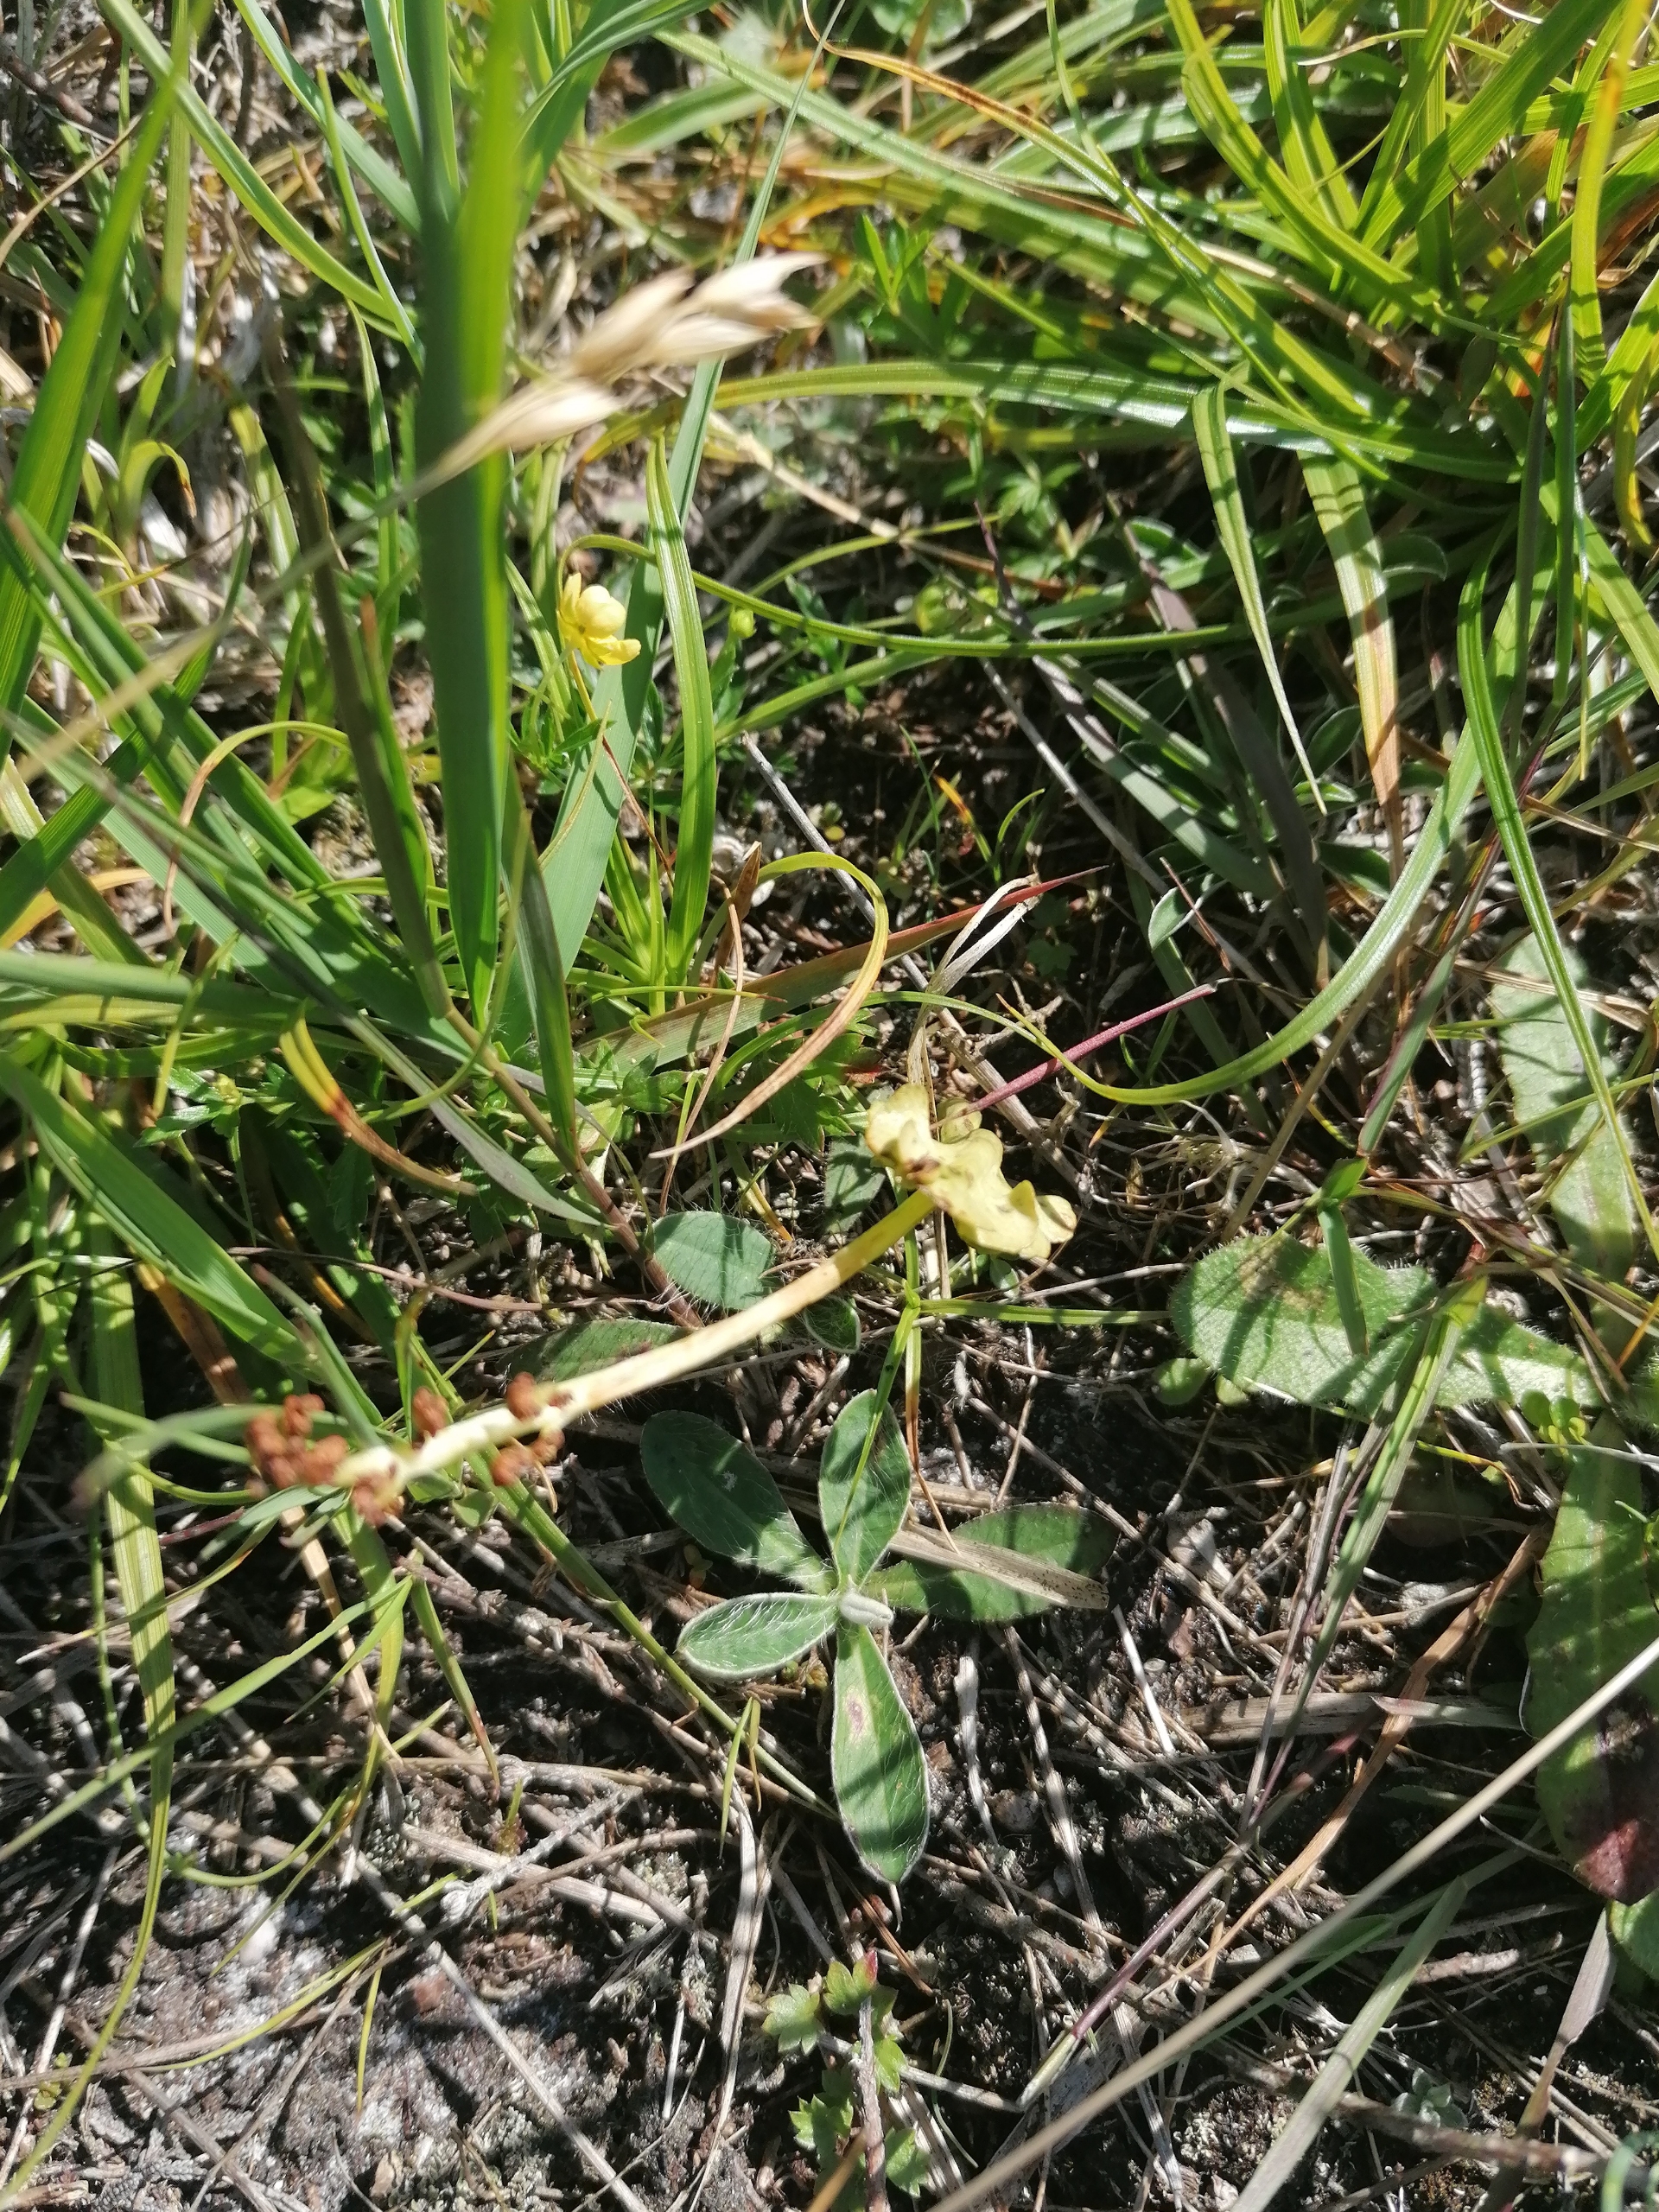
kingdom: Plantae
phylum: Tracheophyta
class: Polypodiopsida
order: Ophioglossales
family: Ophioglossaceae
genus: Botrychium
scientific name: Botrychium lunaria
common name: Almindelig månerude
